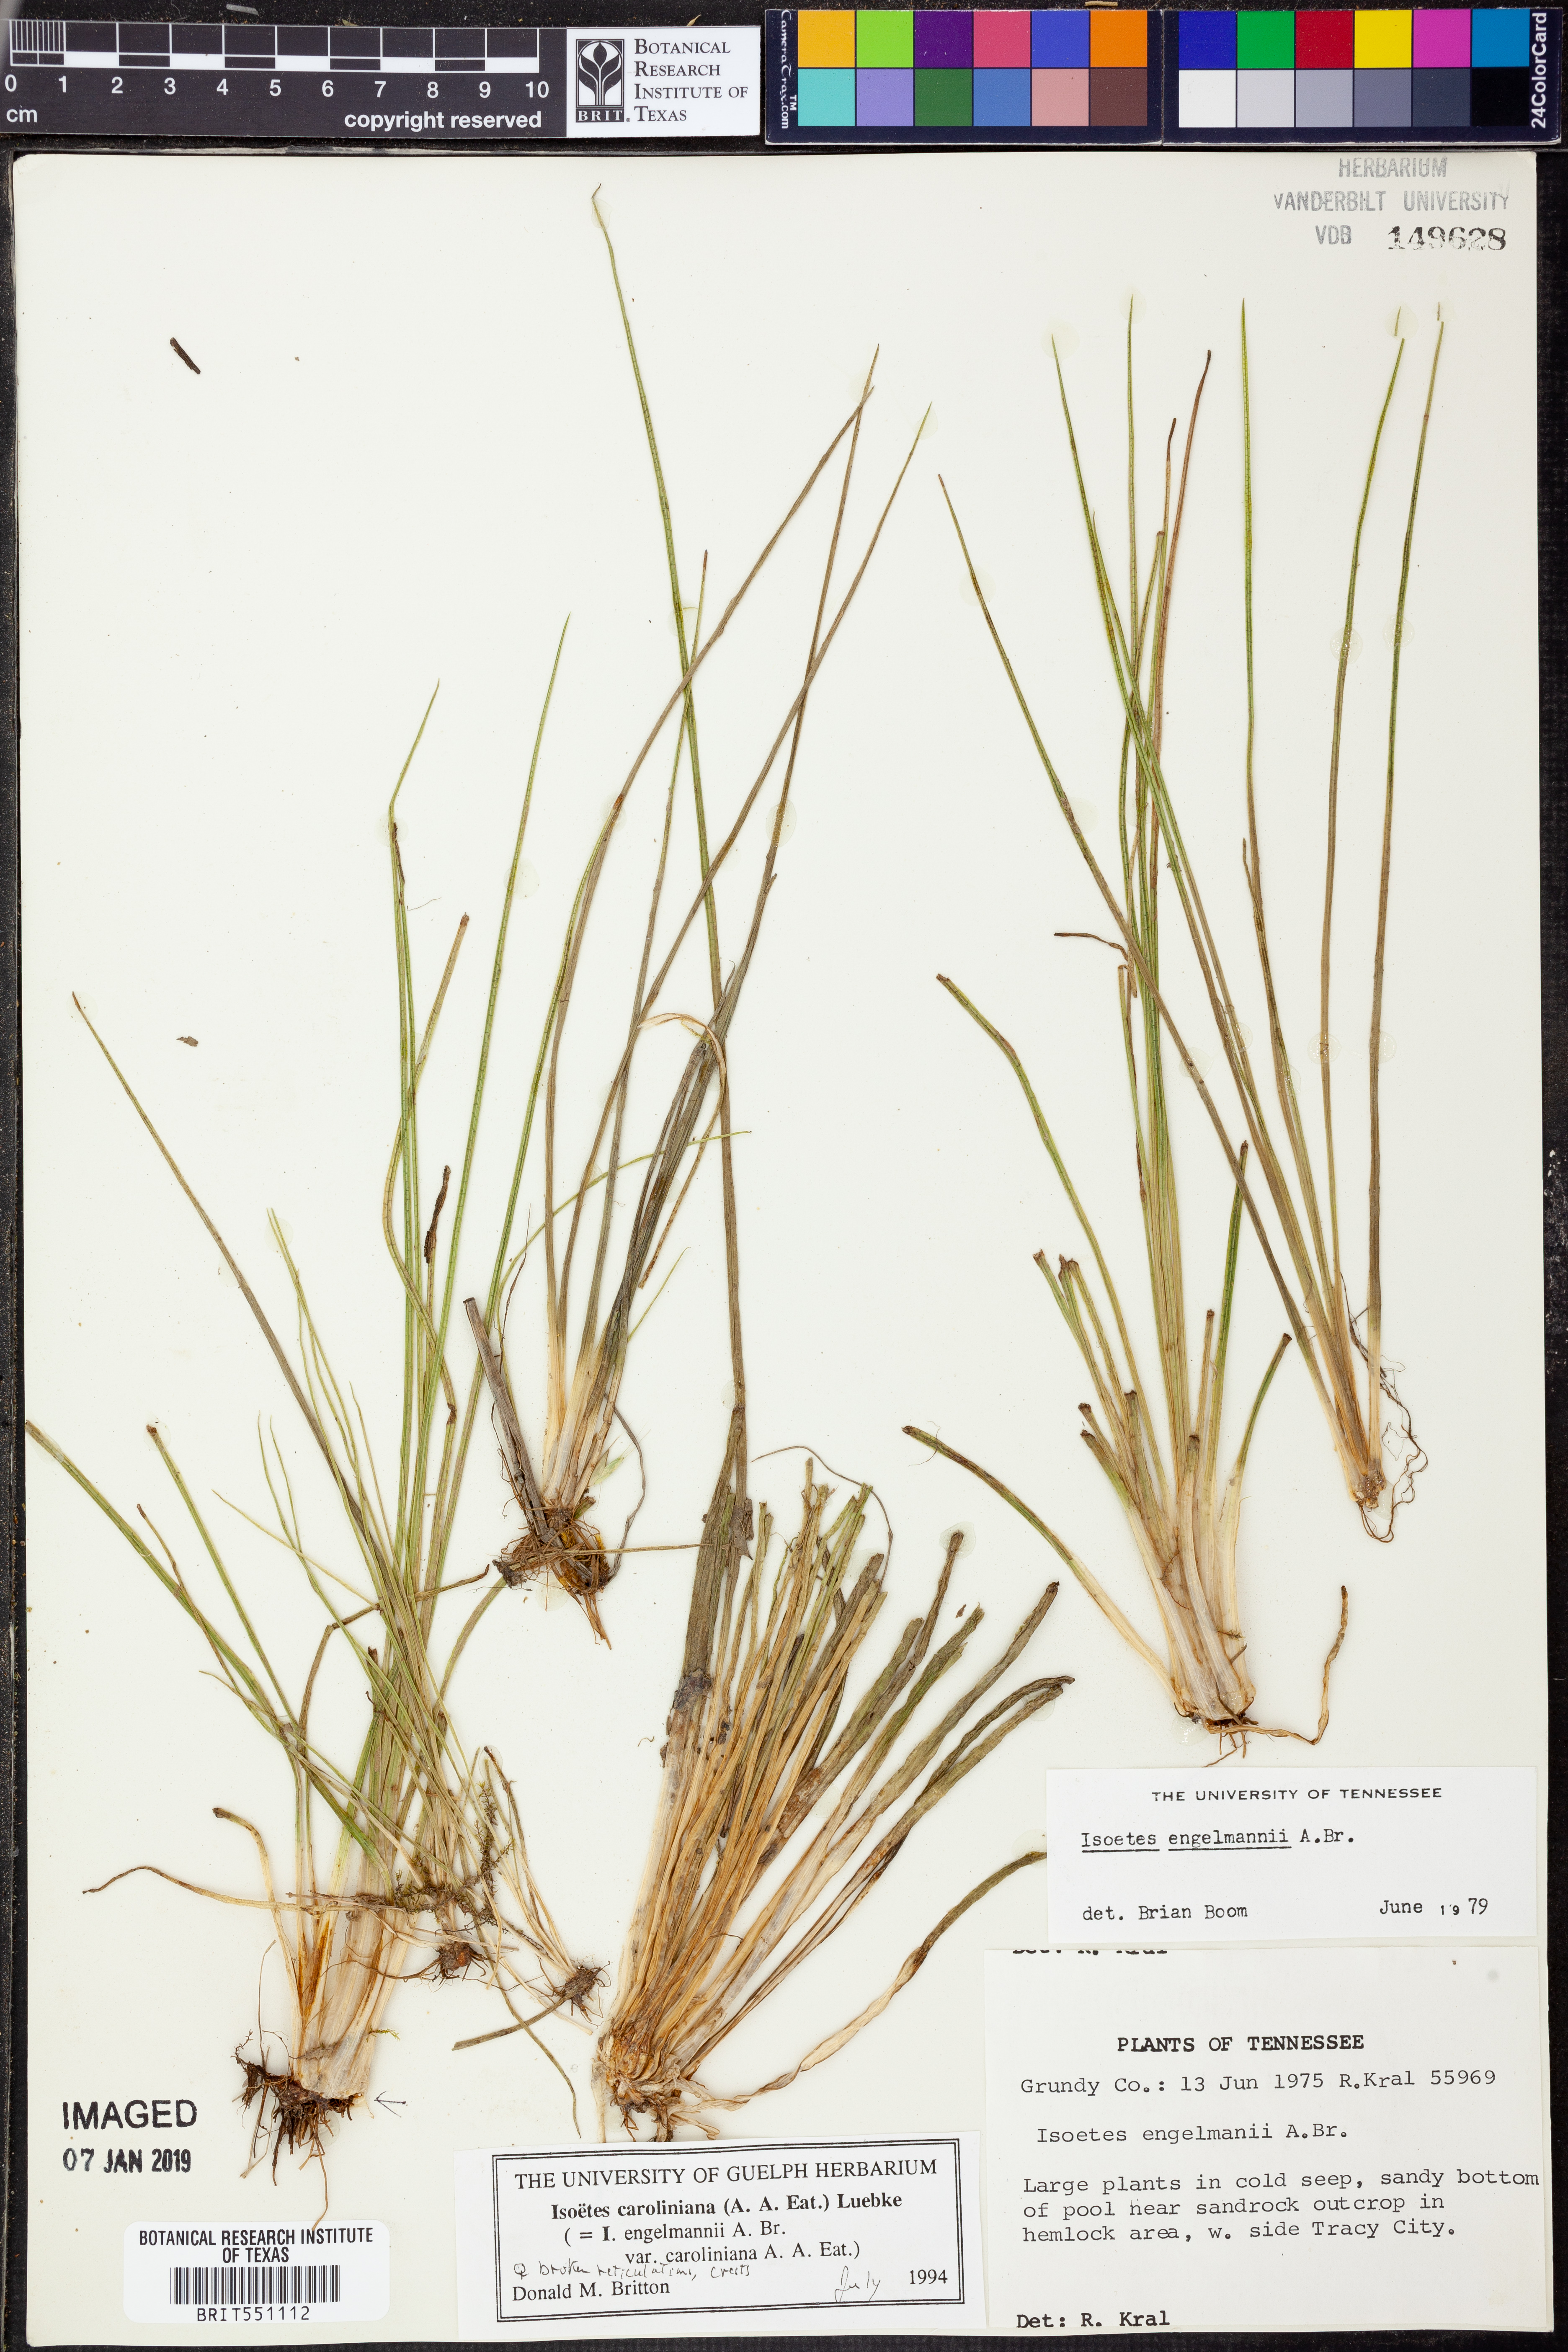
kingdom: Plantae
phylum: Tracheophyta
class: Lycopodiopsida
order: Isoetales
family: Isoetaceae
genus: Isoetes
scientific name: Isoetes caroliniana
